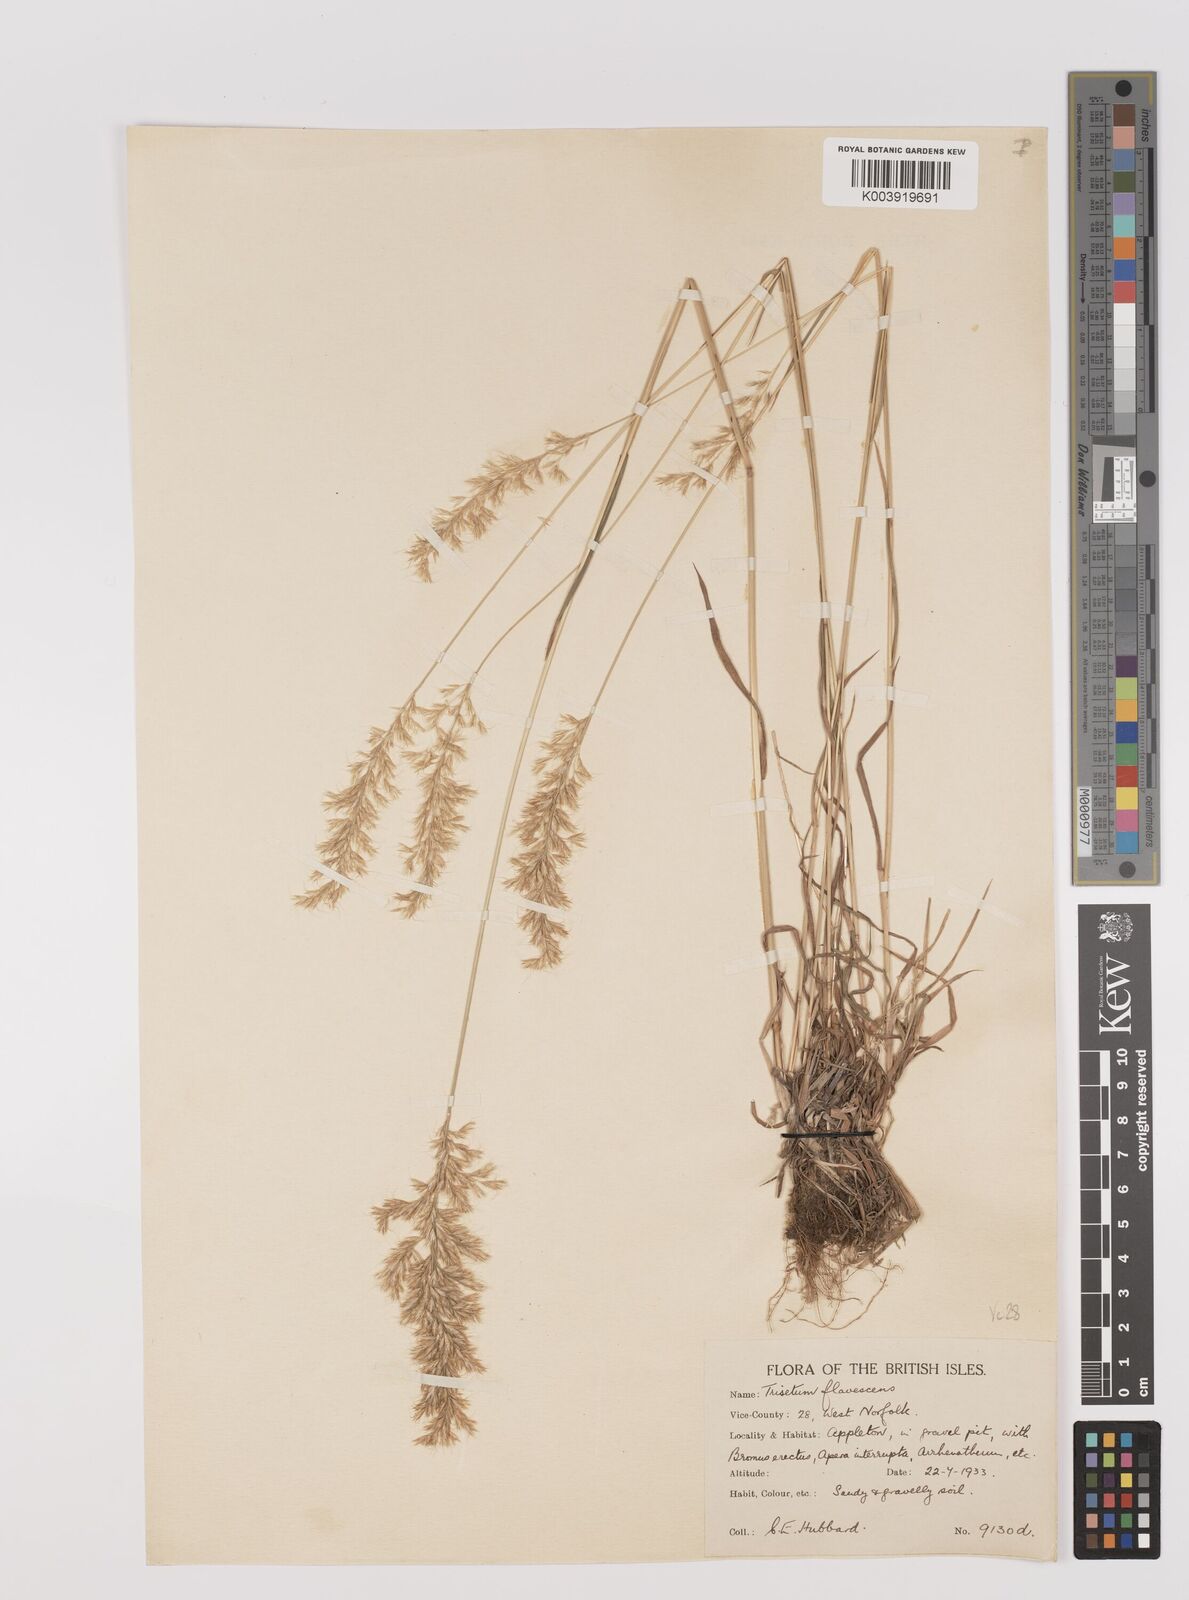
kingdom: Plantae
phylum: Tracheophyta
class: Liliopsida
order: Poales
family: Poaceae
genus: Trisetum
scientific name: Trisetum flavescens
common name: Yellow oat-grass
